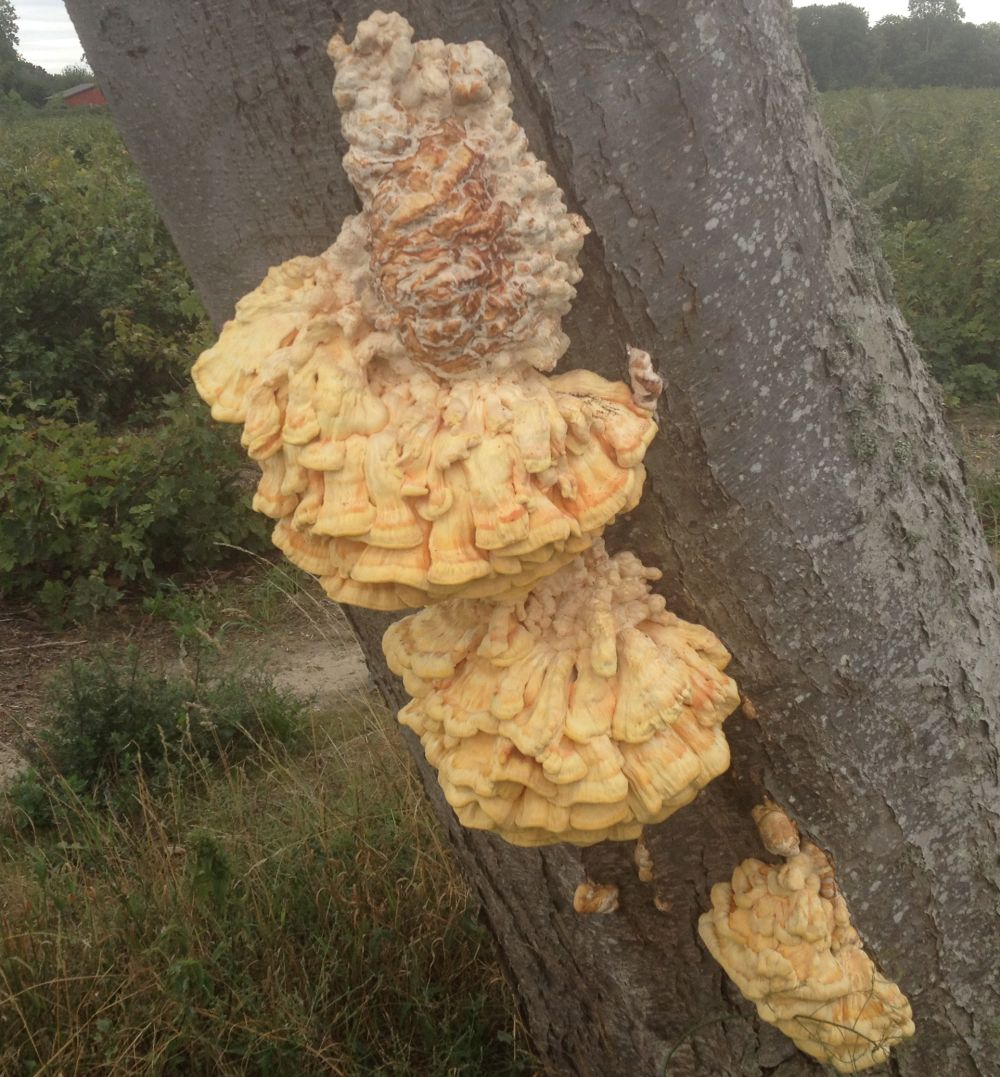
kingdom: Fungi
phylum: Basidiomycota
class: Agaricomycetes
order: Polyporales
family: Laetiporaceae
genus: Laetiporus
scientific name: Laetiporus sulphureus
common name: svovlporesvamp
